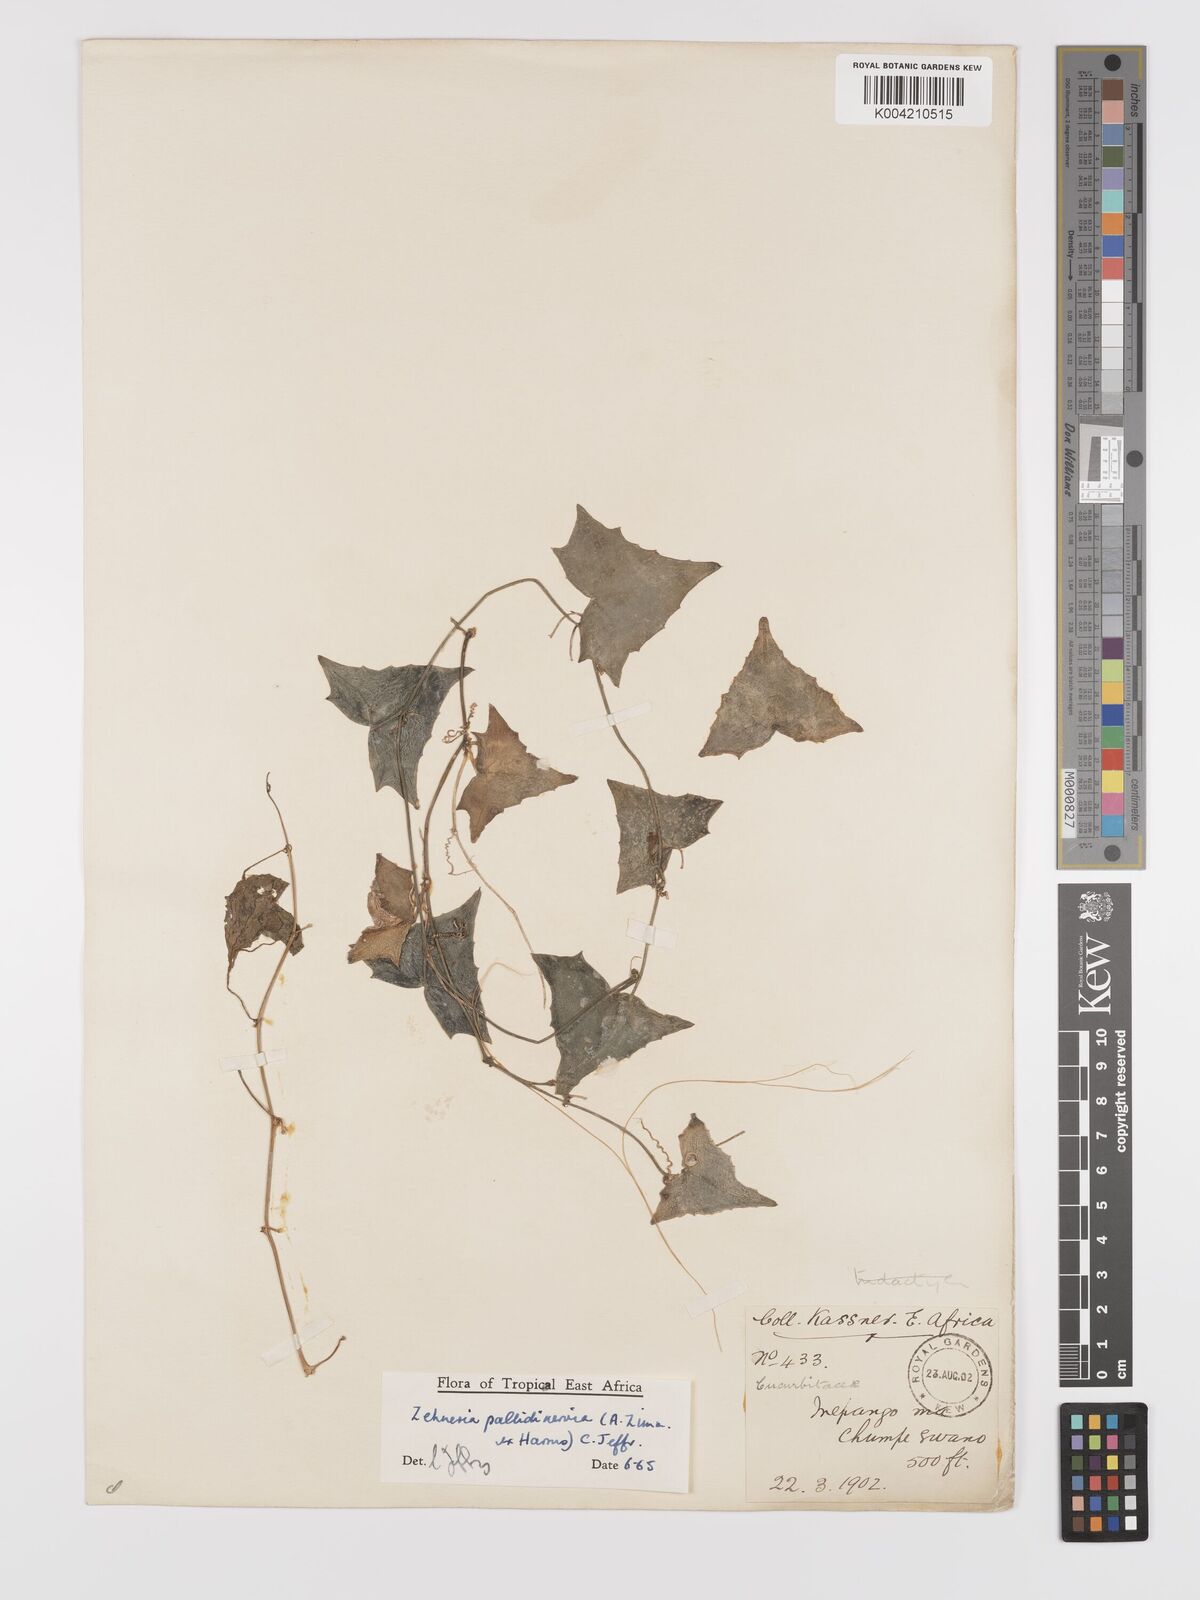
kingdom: Plantae
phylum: Tracheophyta
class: Magnoliopsida
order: Cucurbitales
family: Cucurbitaceae
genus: Zehneria
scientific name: Zehneria pallidinervia
